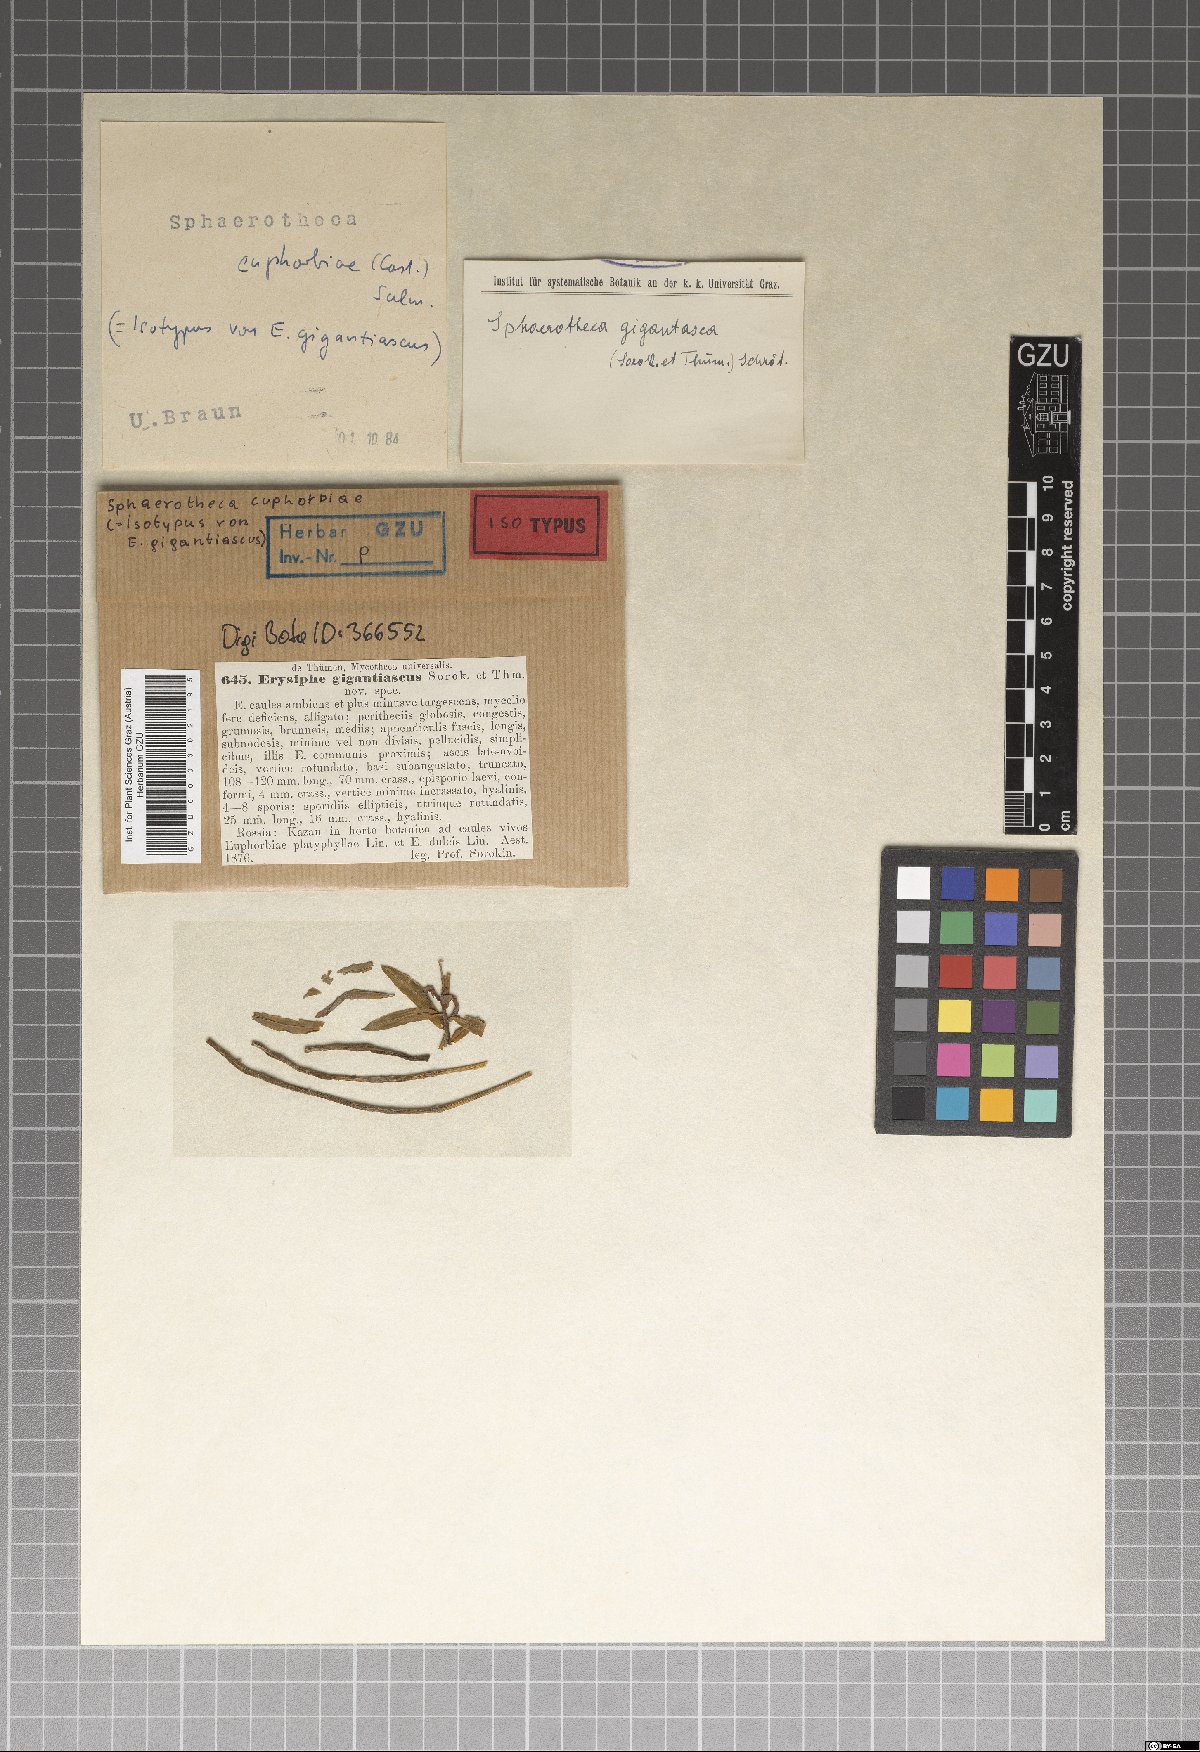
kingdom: Fungi
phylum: Ascomycota
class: Leotiomycetes
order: Helotiales
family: Erysiphaceae
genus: Erysiphe
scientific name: Erysiphe gigantiasca
